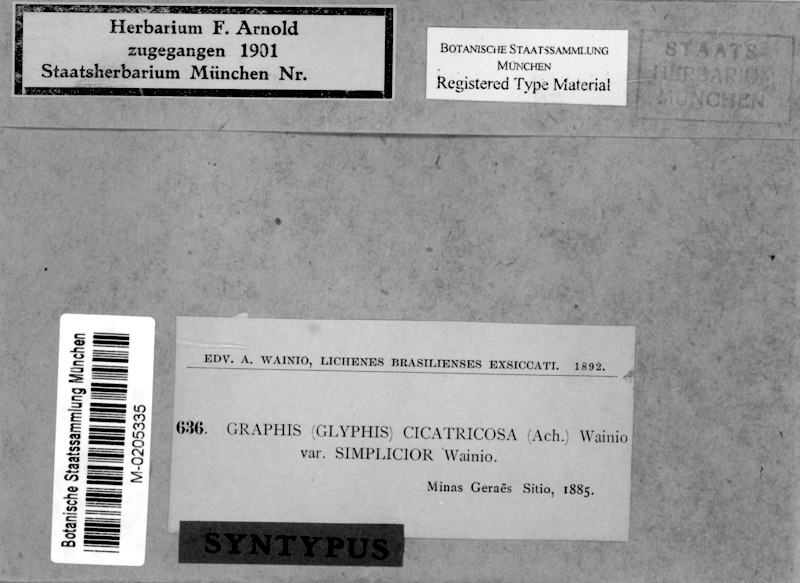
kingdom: Fungi
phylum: Ascomycota
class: Lecanoromycetes
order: Ostropales
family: Graphidaceae
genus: Glyphis
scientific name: Glyphis cicatricosa
